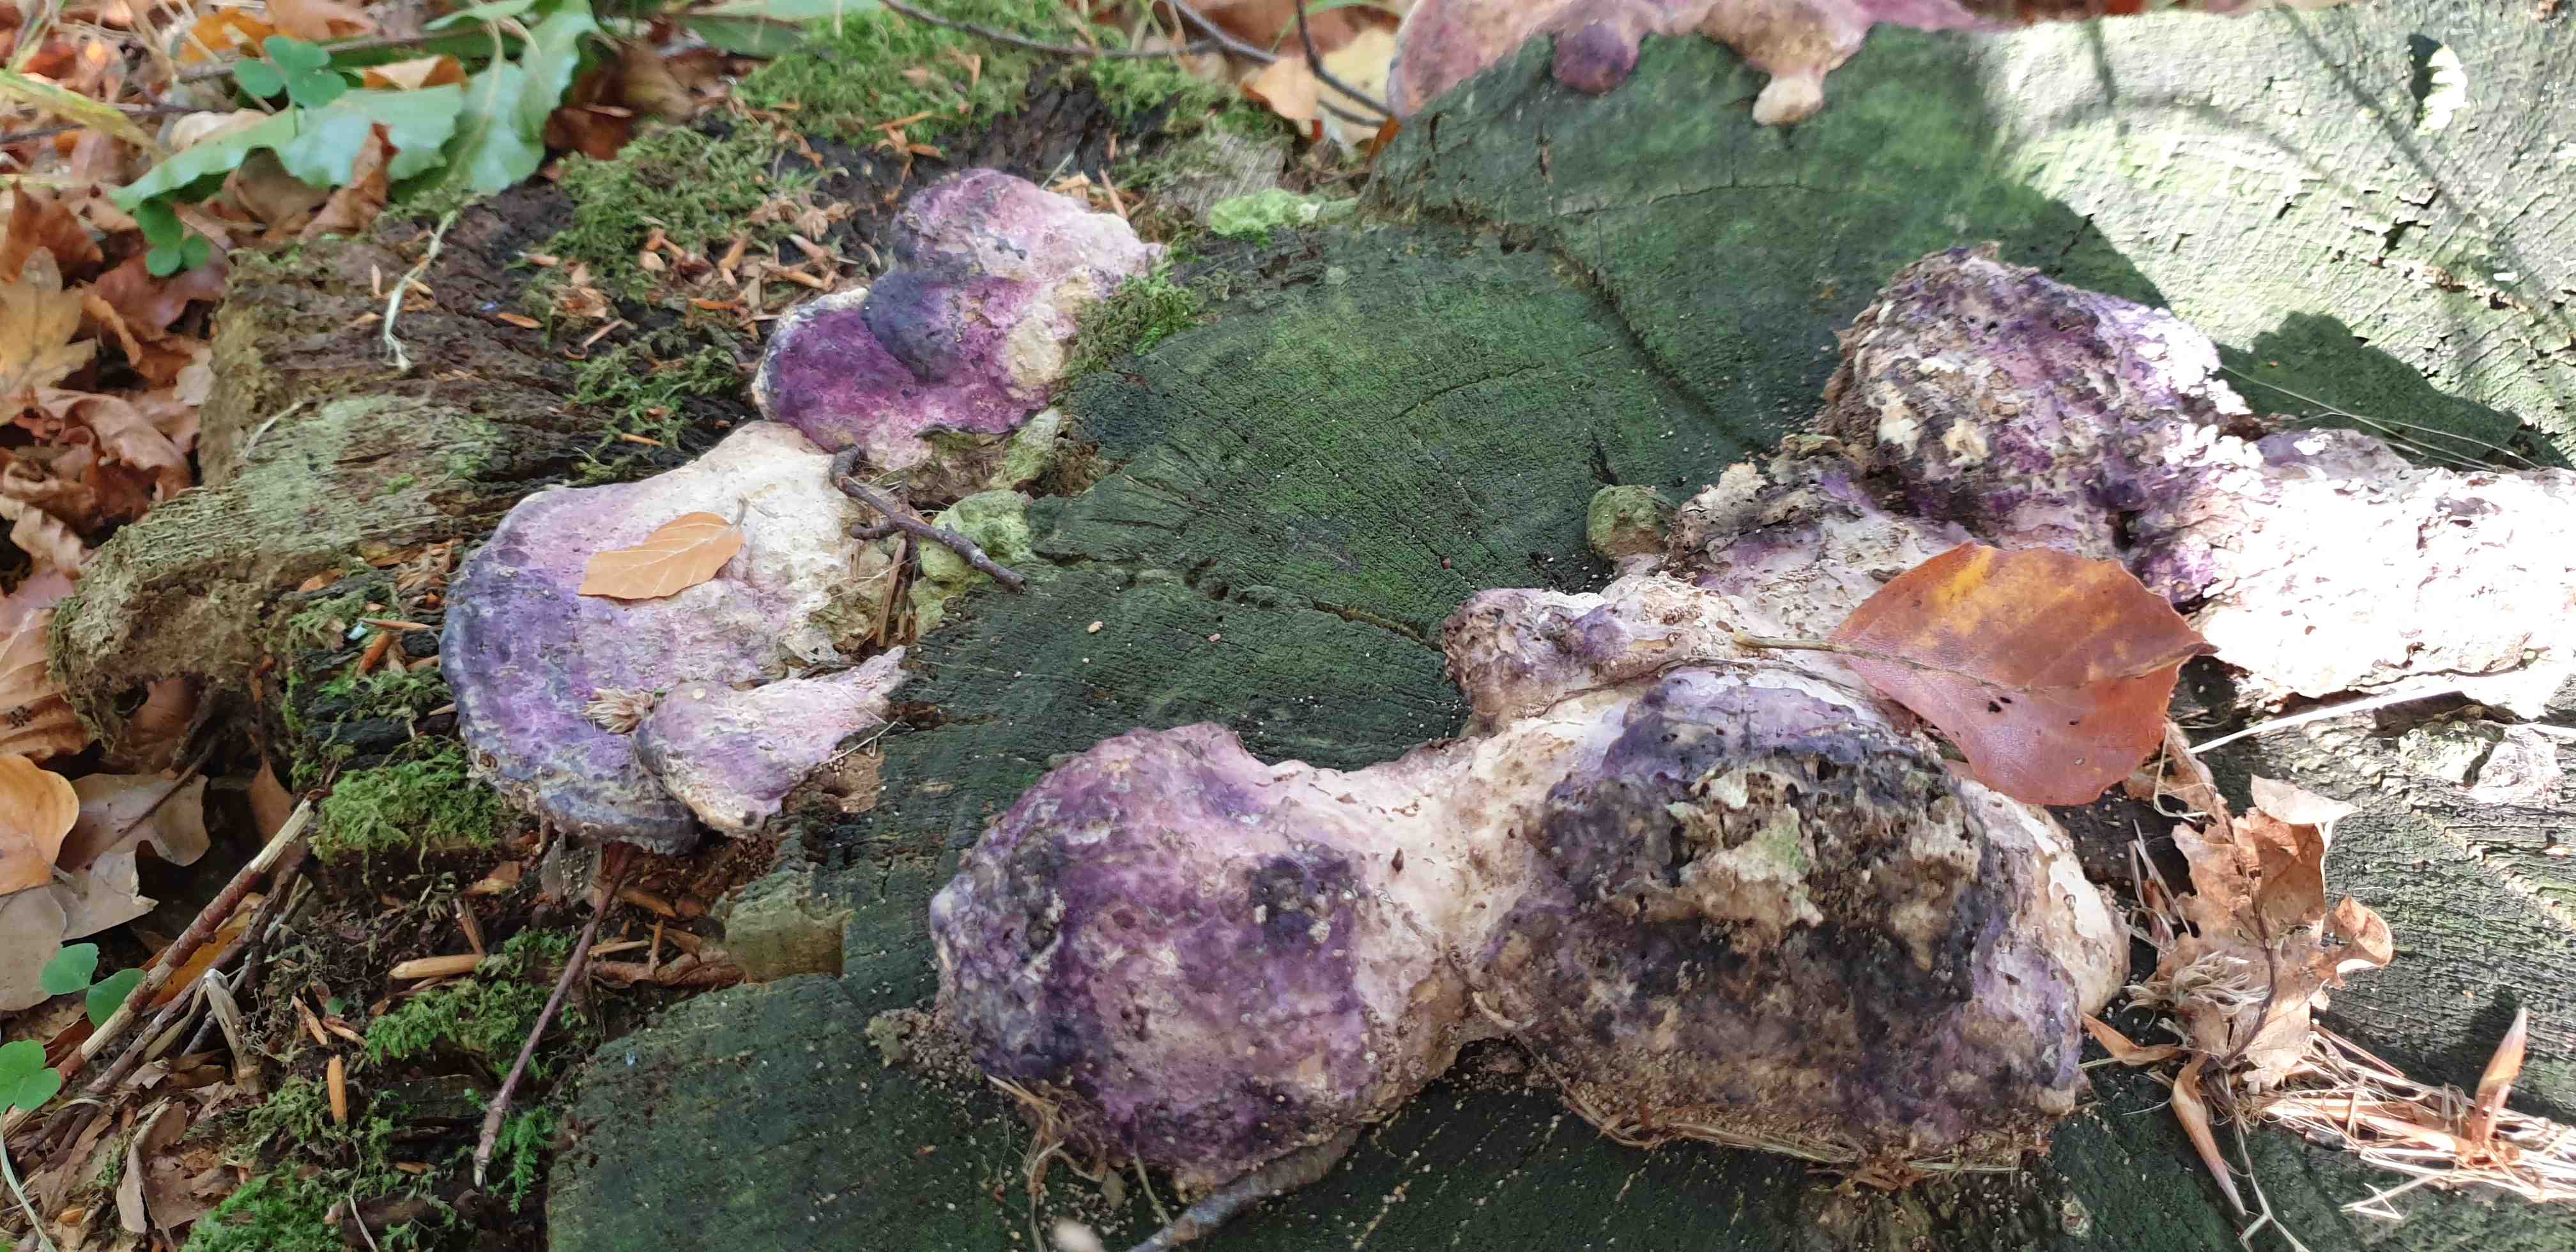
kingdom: Fungi
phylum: Basidiomycota
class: Agaricomycetes
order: Polyporales
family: Fomitopsidaceae
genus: Daedalea
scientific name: Daedalea quercina
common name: ege-labyrintsvamp
